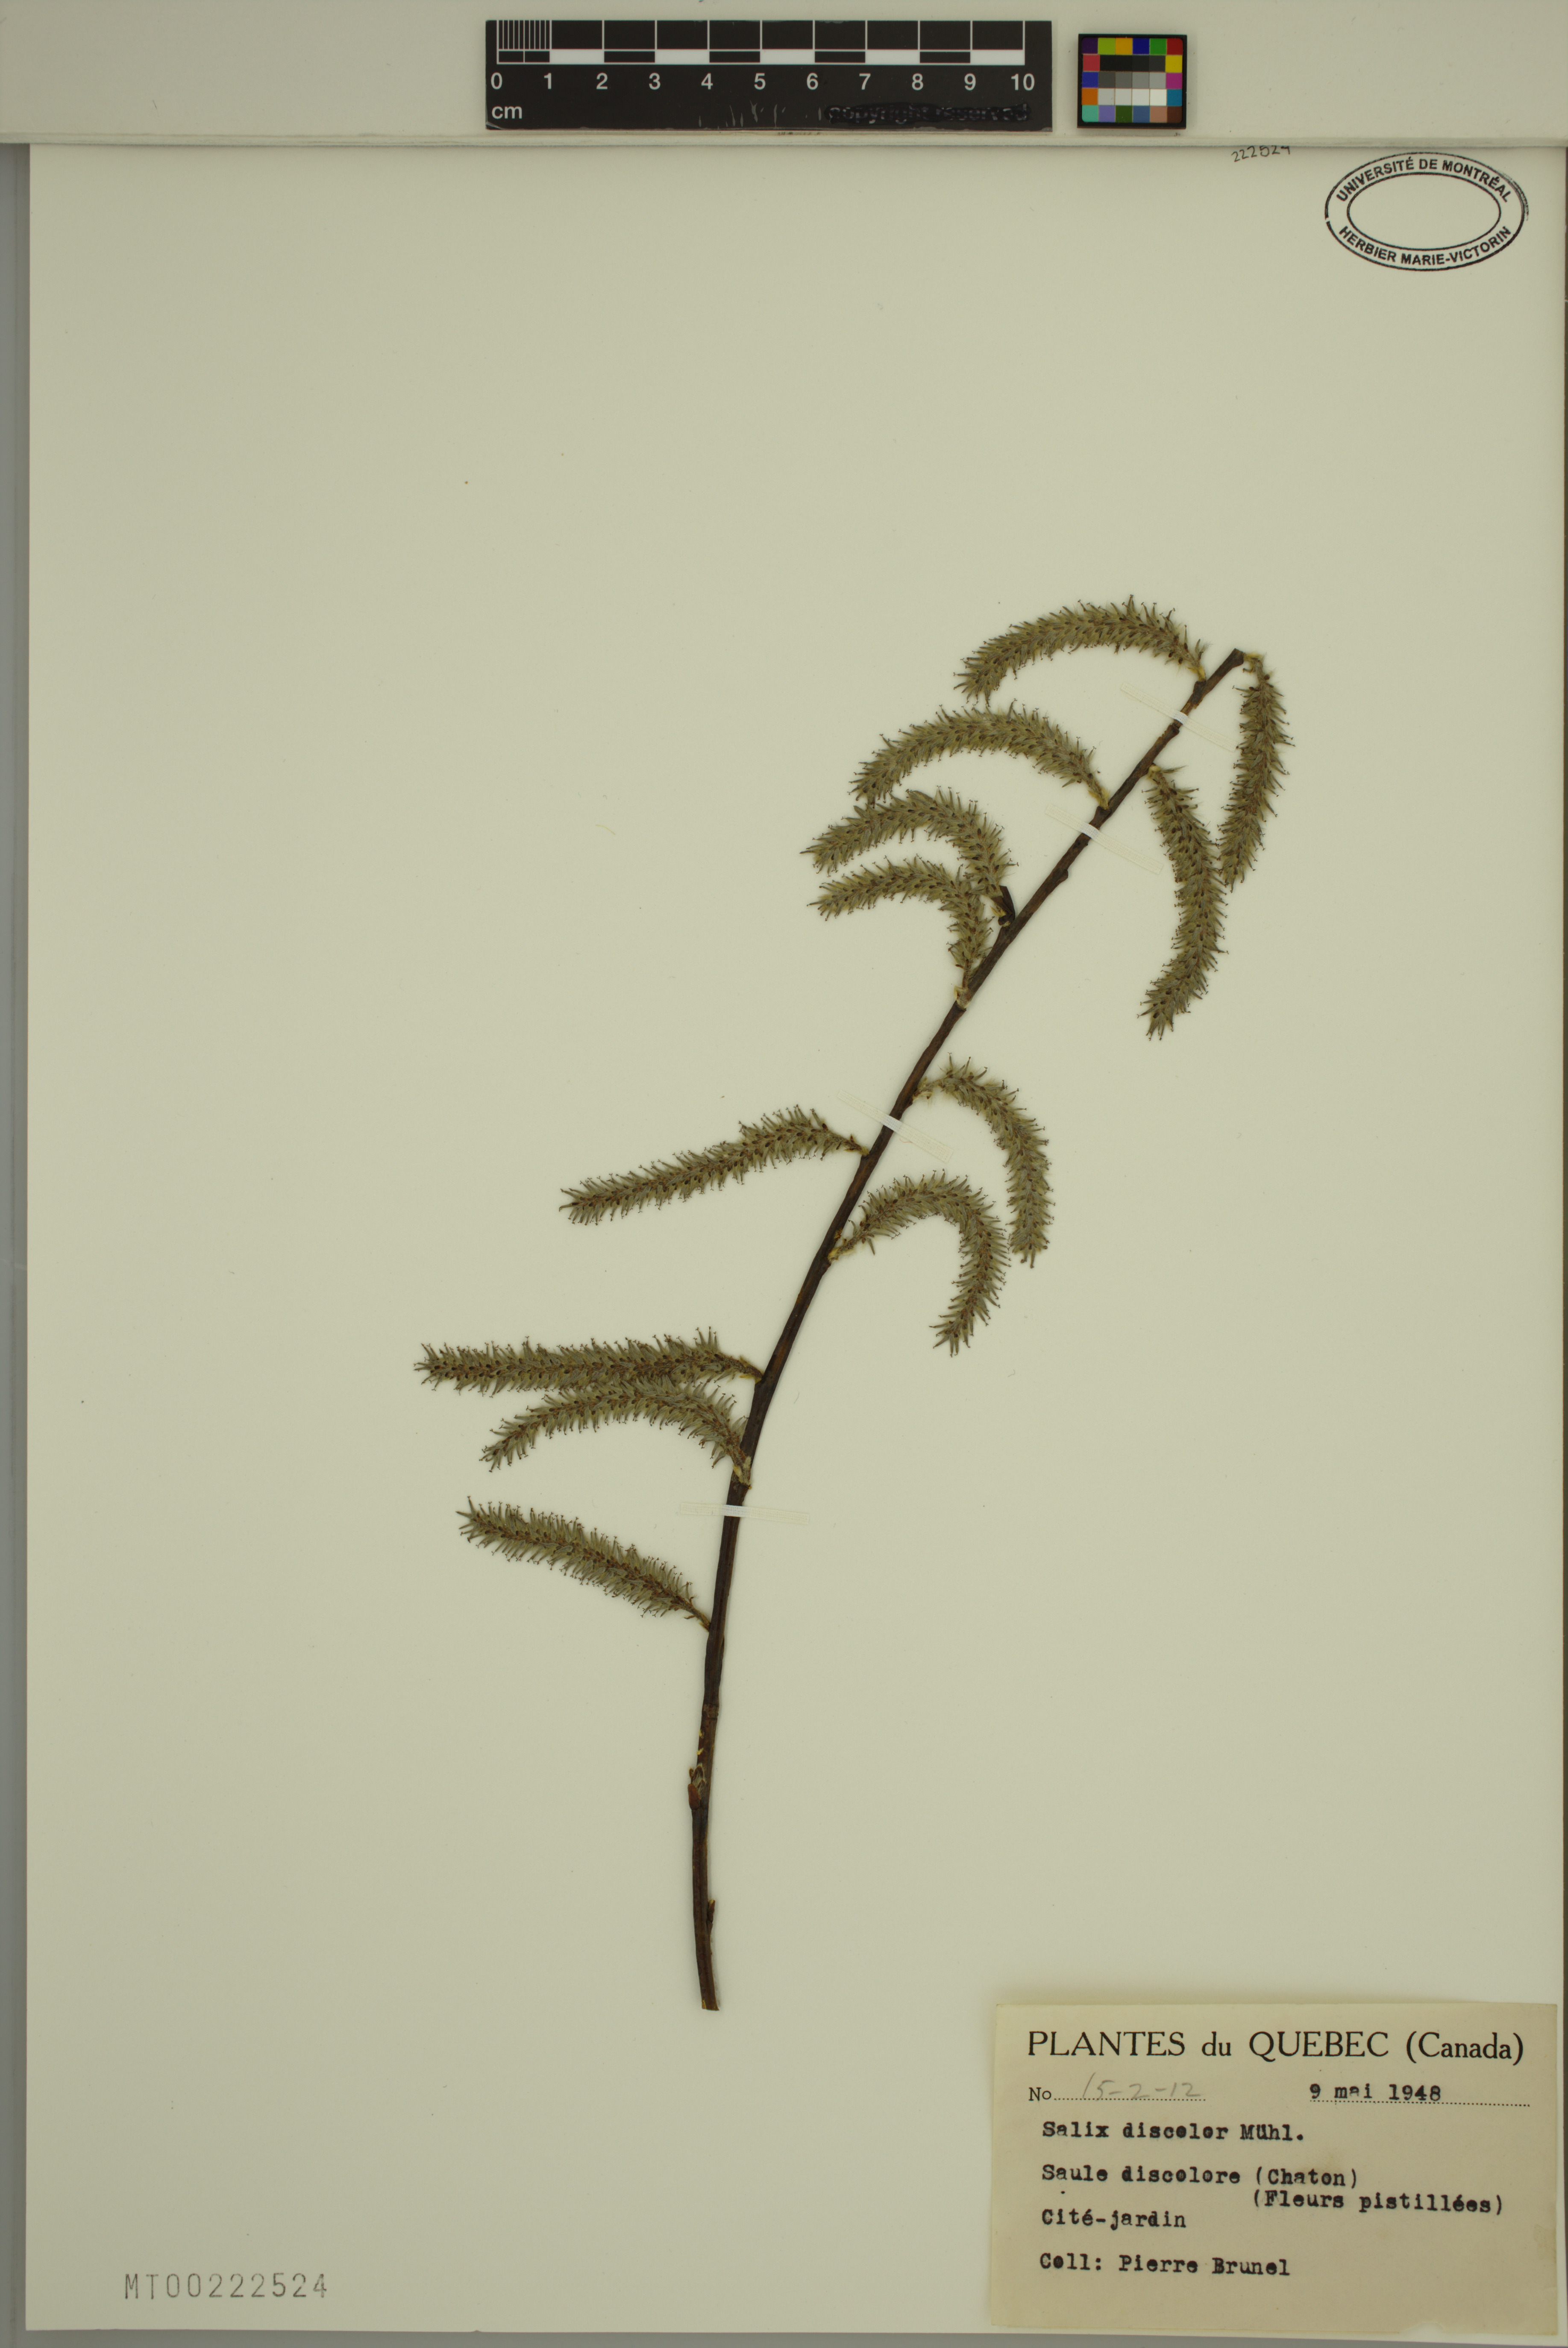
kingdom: Plantae
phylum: Tracheophyta
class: Magnoliopsida
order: Malpighiales
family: Salicaceae
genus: Salix
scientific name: Salix discolor
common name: Glaucous willow
